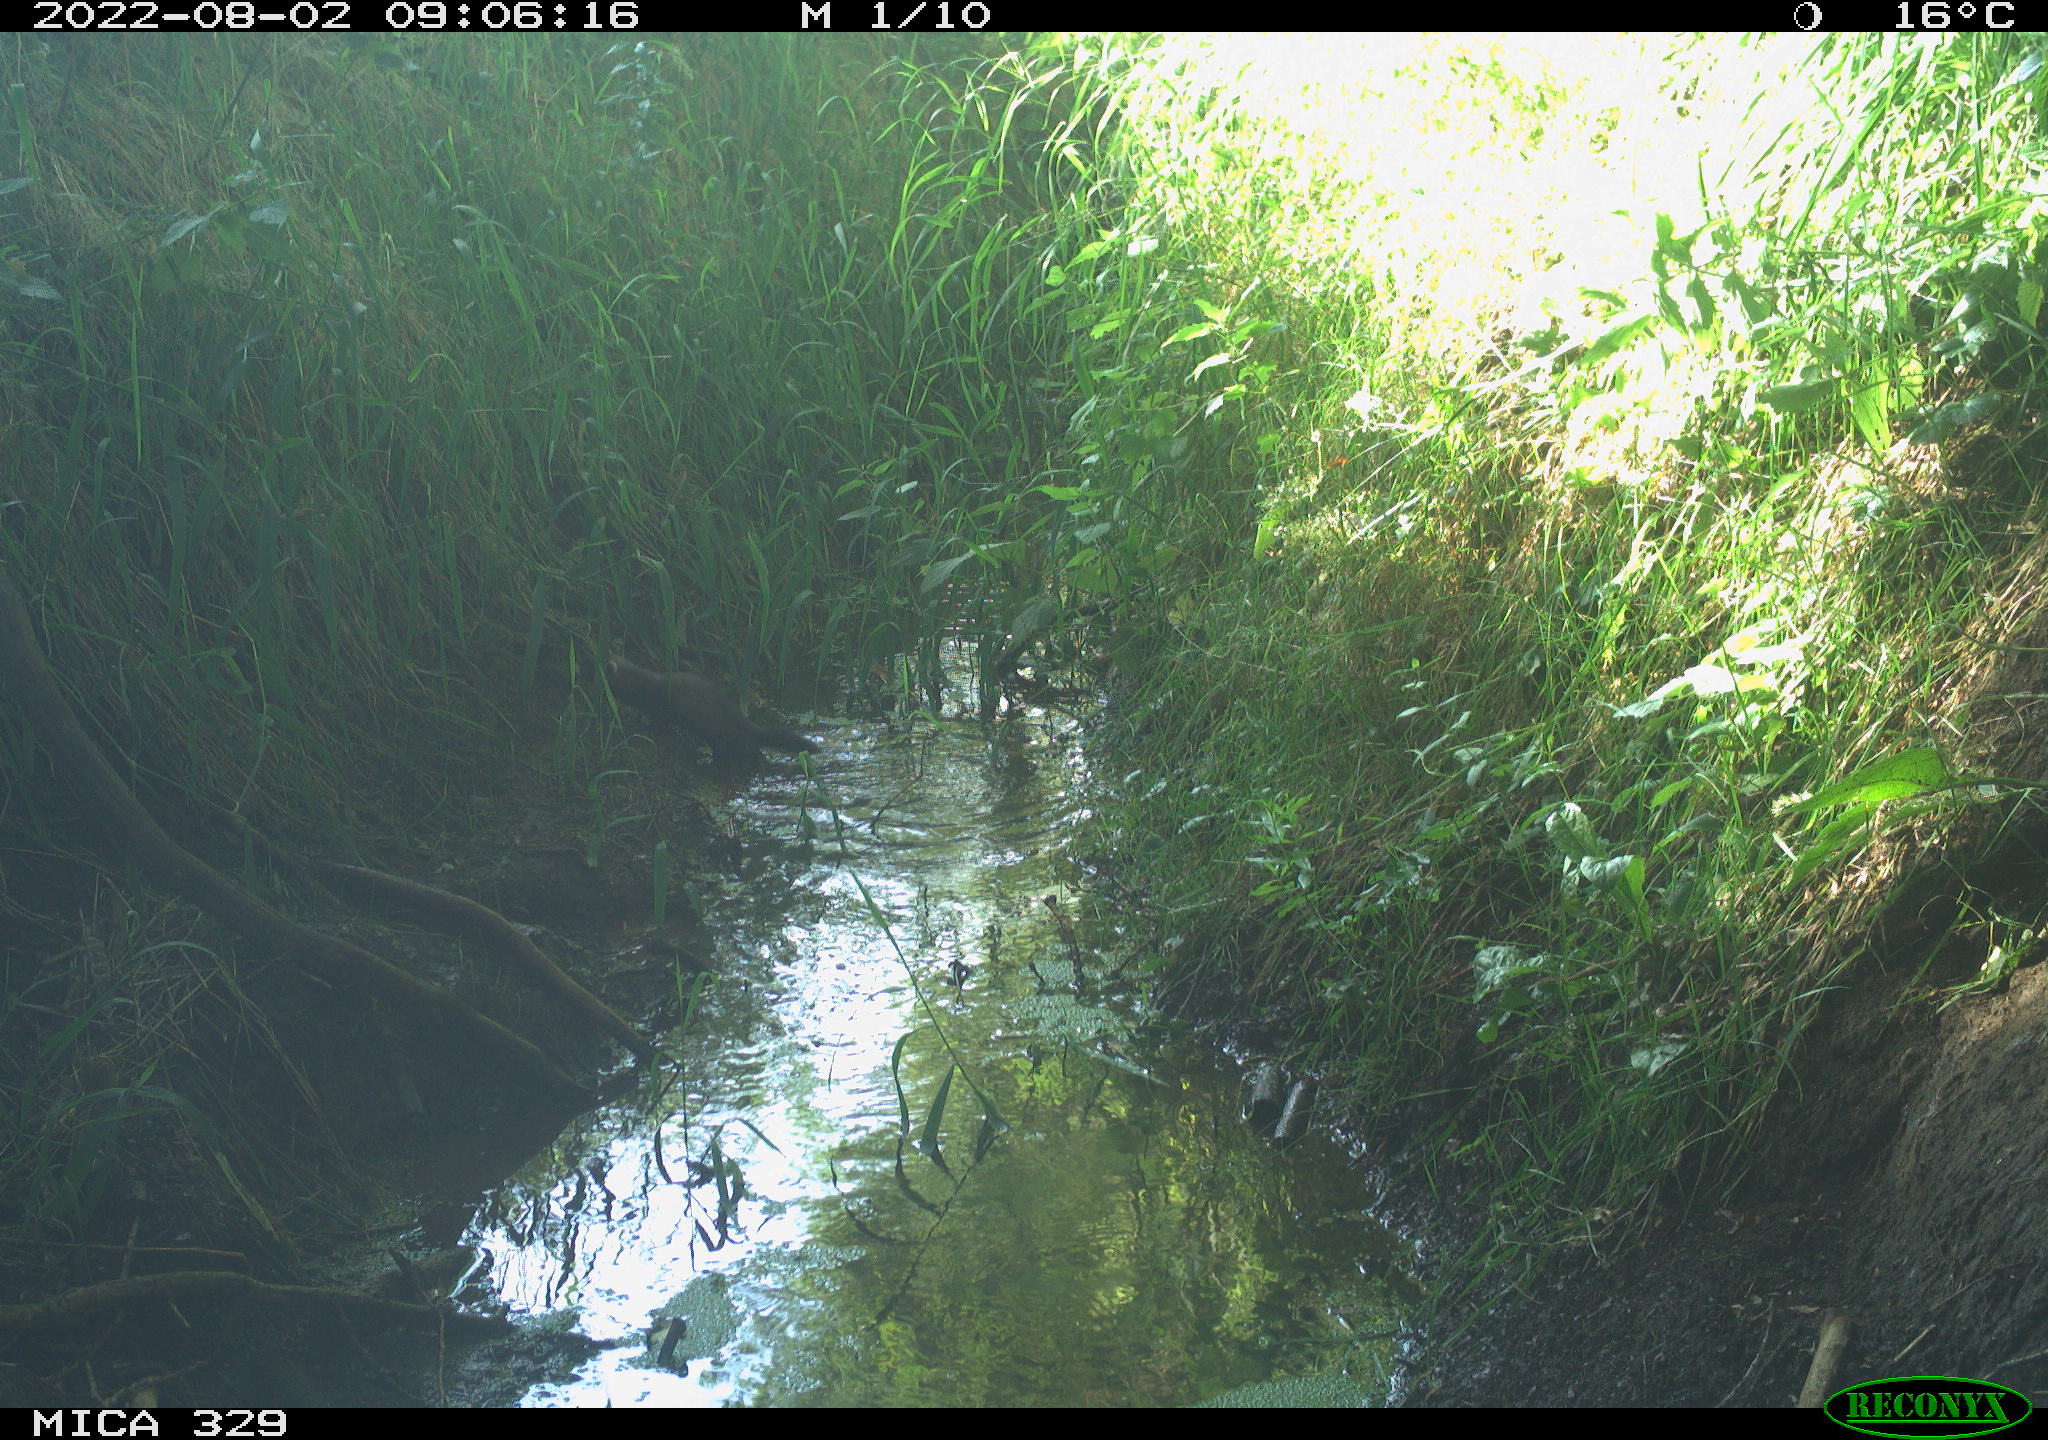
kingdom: Animalia
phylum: Chordata
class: Mammalia
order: Carnivora
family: Mustelidae
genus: Mustela
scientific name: Mustela putorius
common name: European polecat
